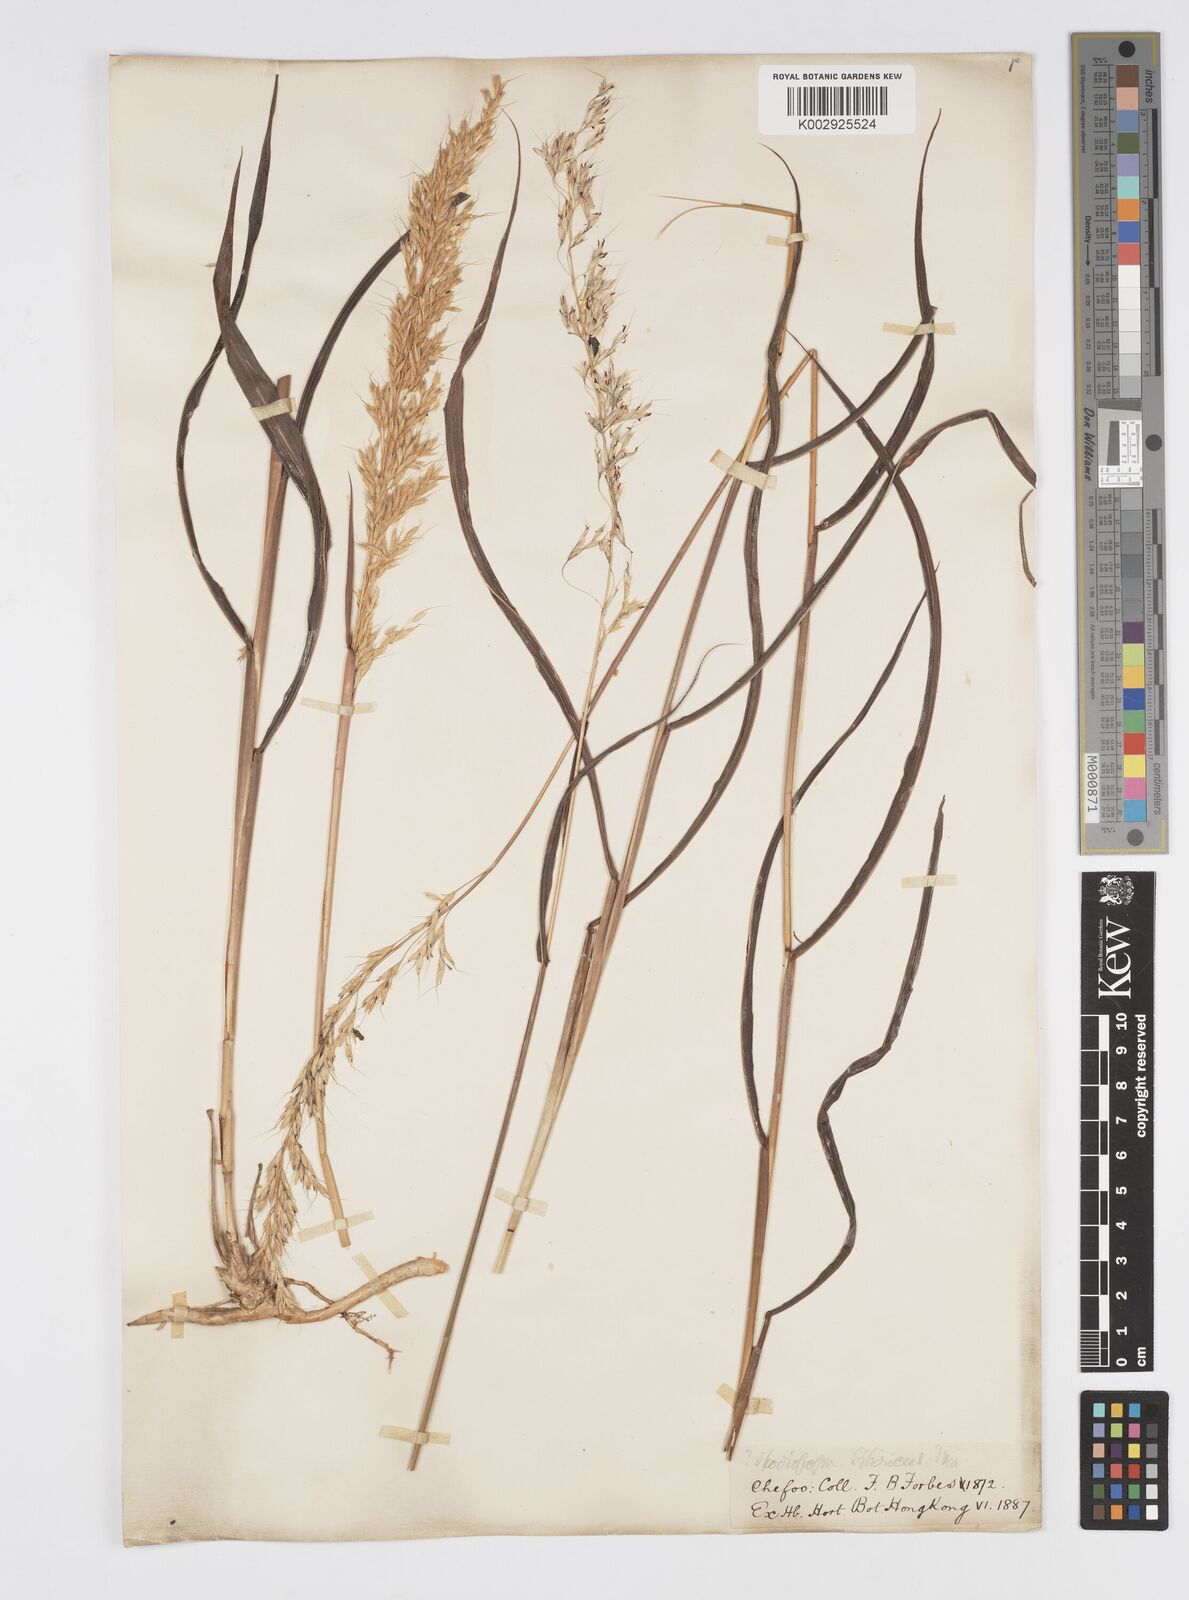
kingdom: Plantae
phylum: Tracheophyta
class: Liliopsida
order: Poales
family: Poaceae
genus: Spodiopogon
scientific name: Spodiopogon sibiricus
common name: Siberian graybeard
